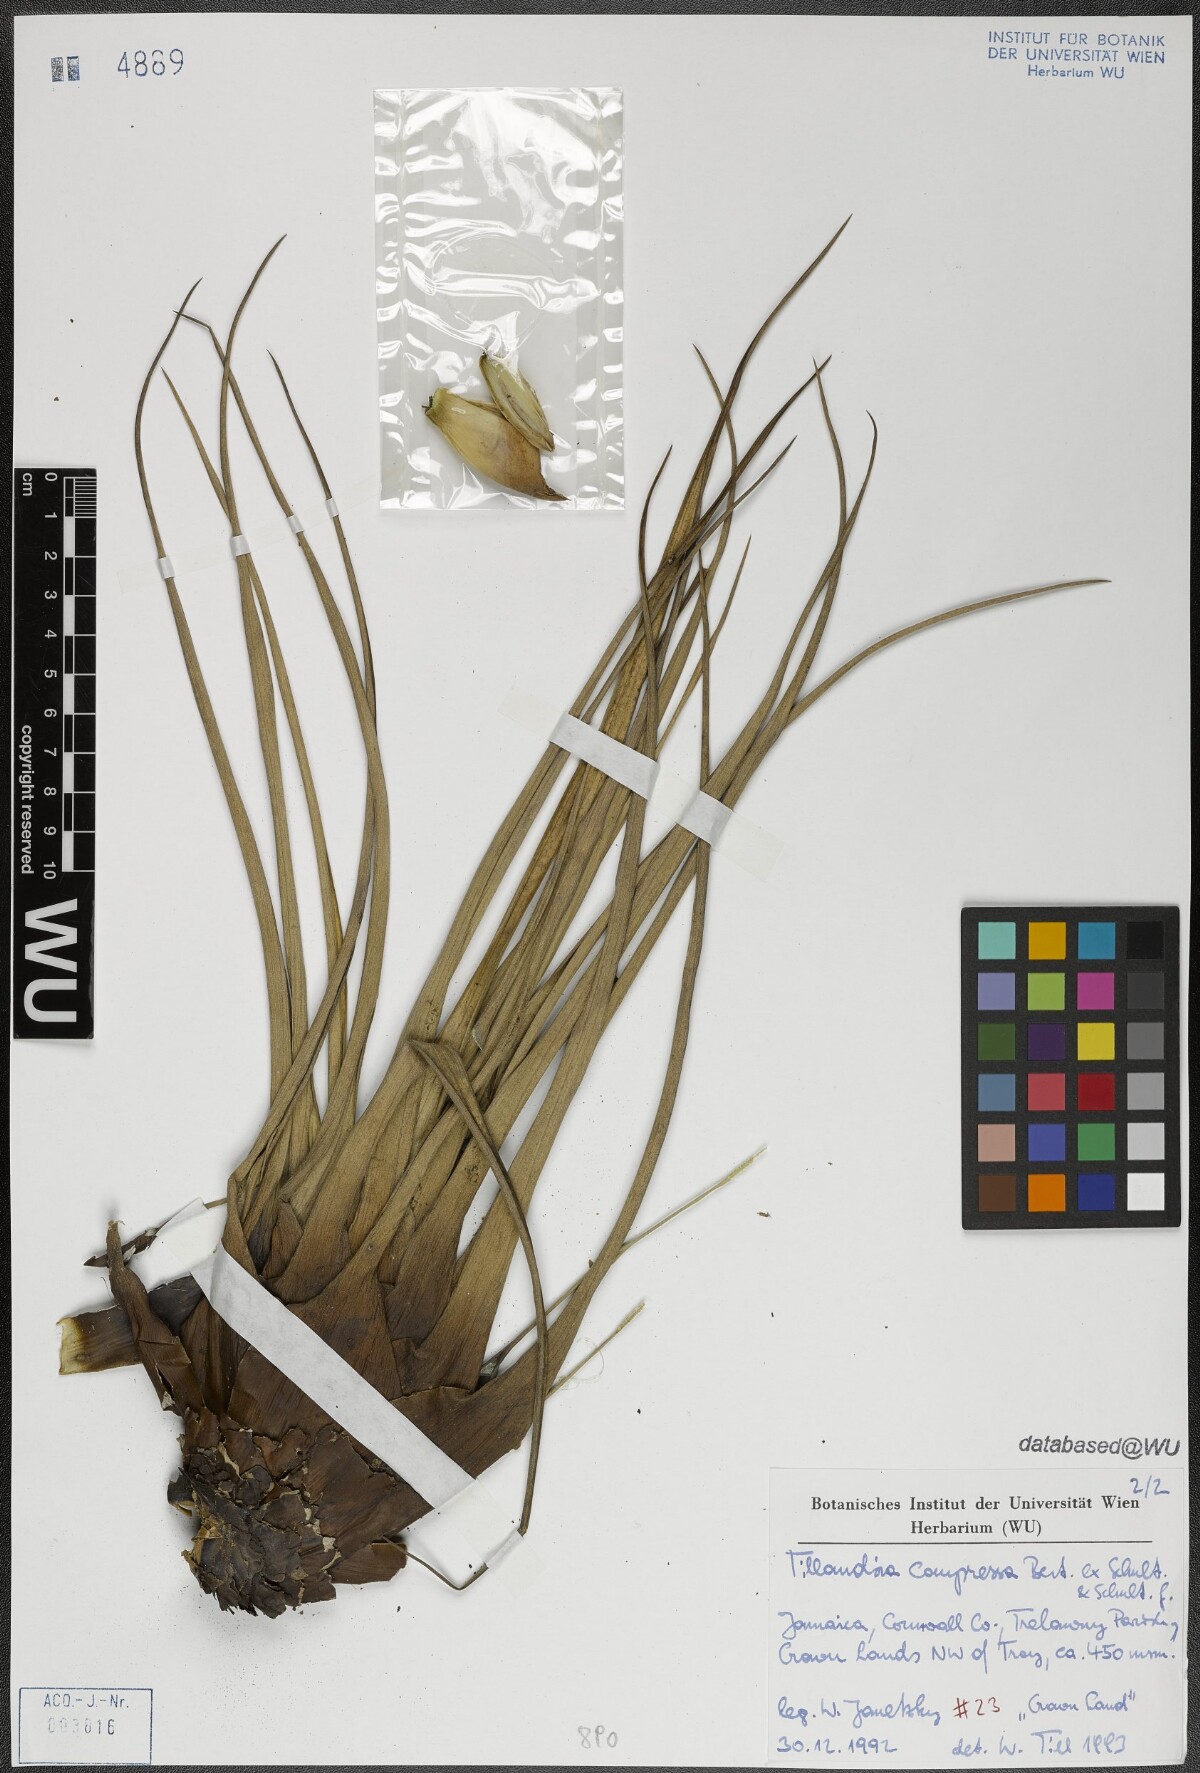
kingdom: Plantae
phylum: Tracheophyta
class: Liliopsida
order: Poales
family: Bromeliaceae
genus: Tillandsia
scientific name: Tillandsia compressa
